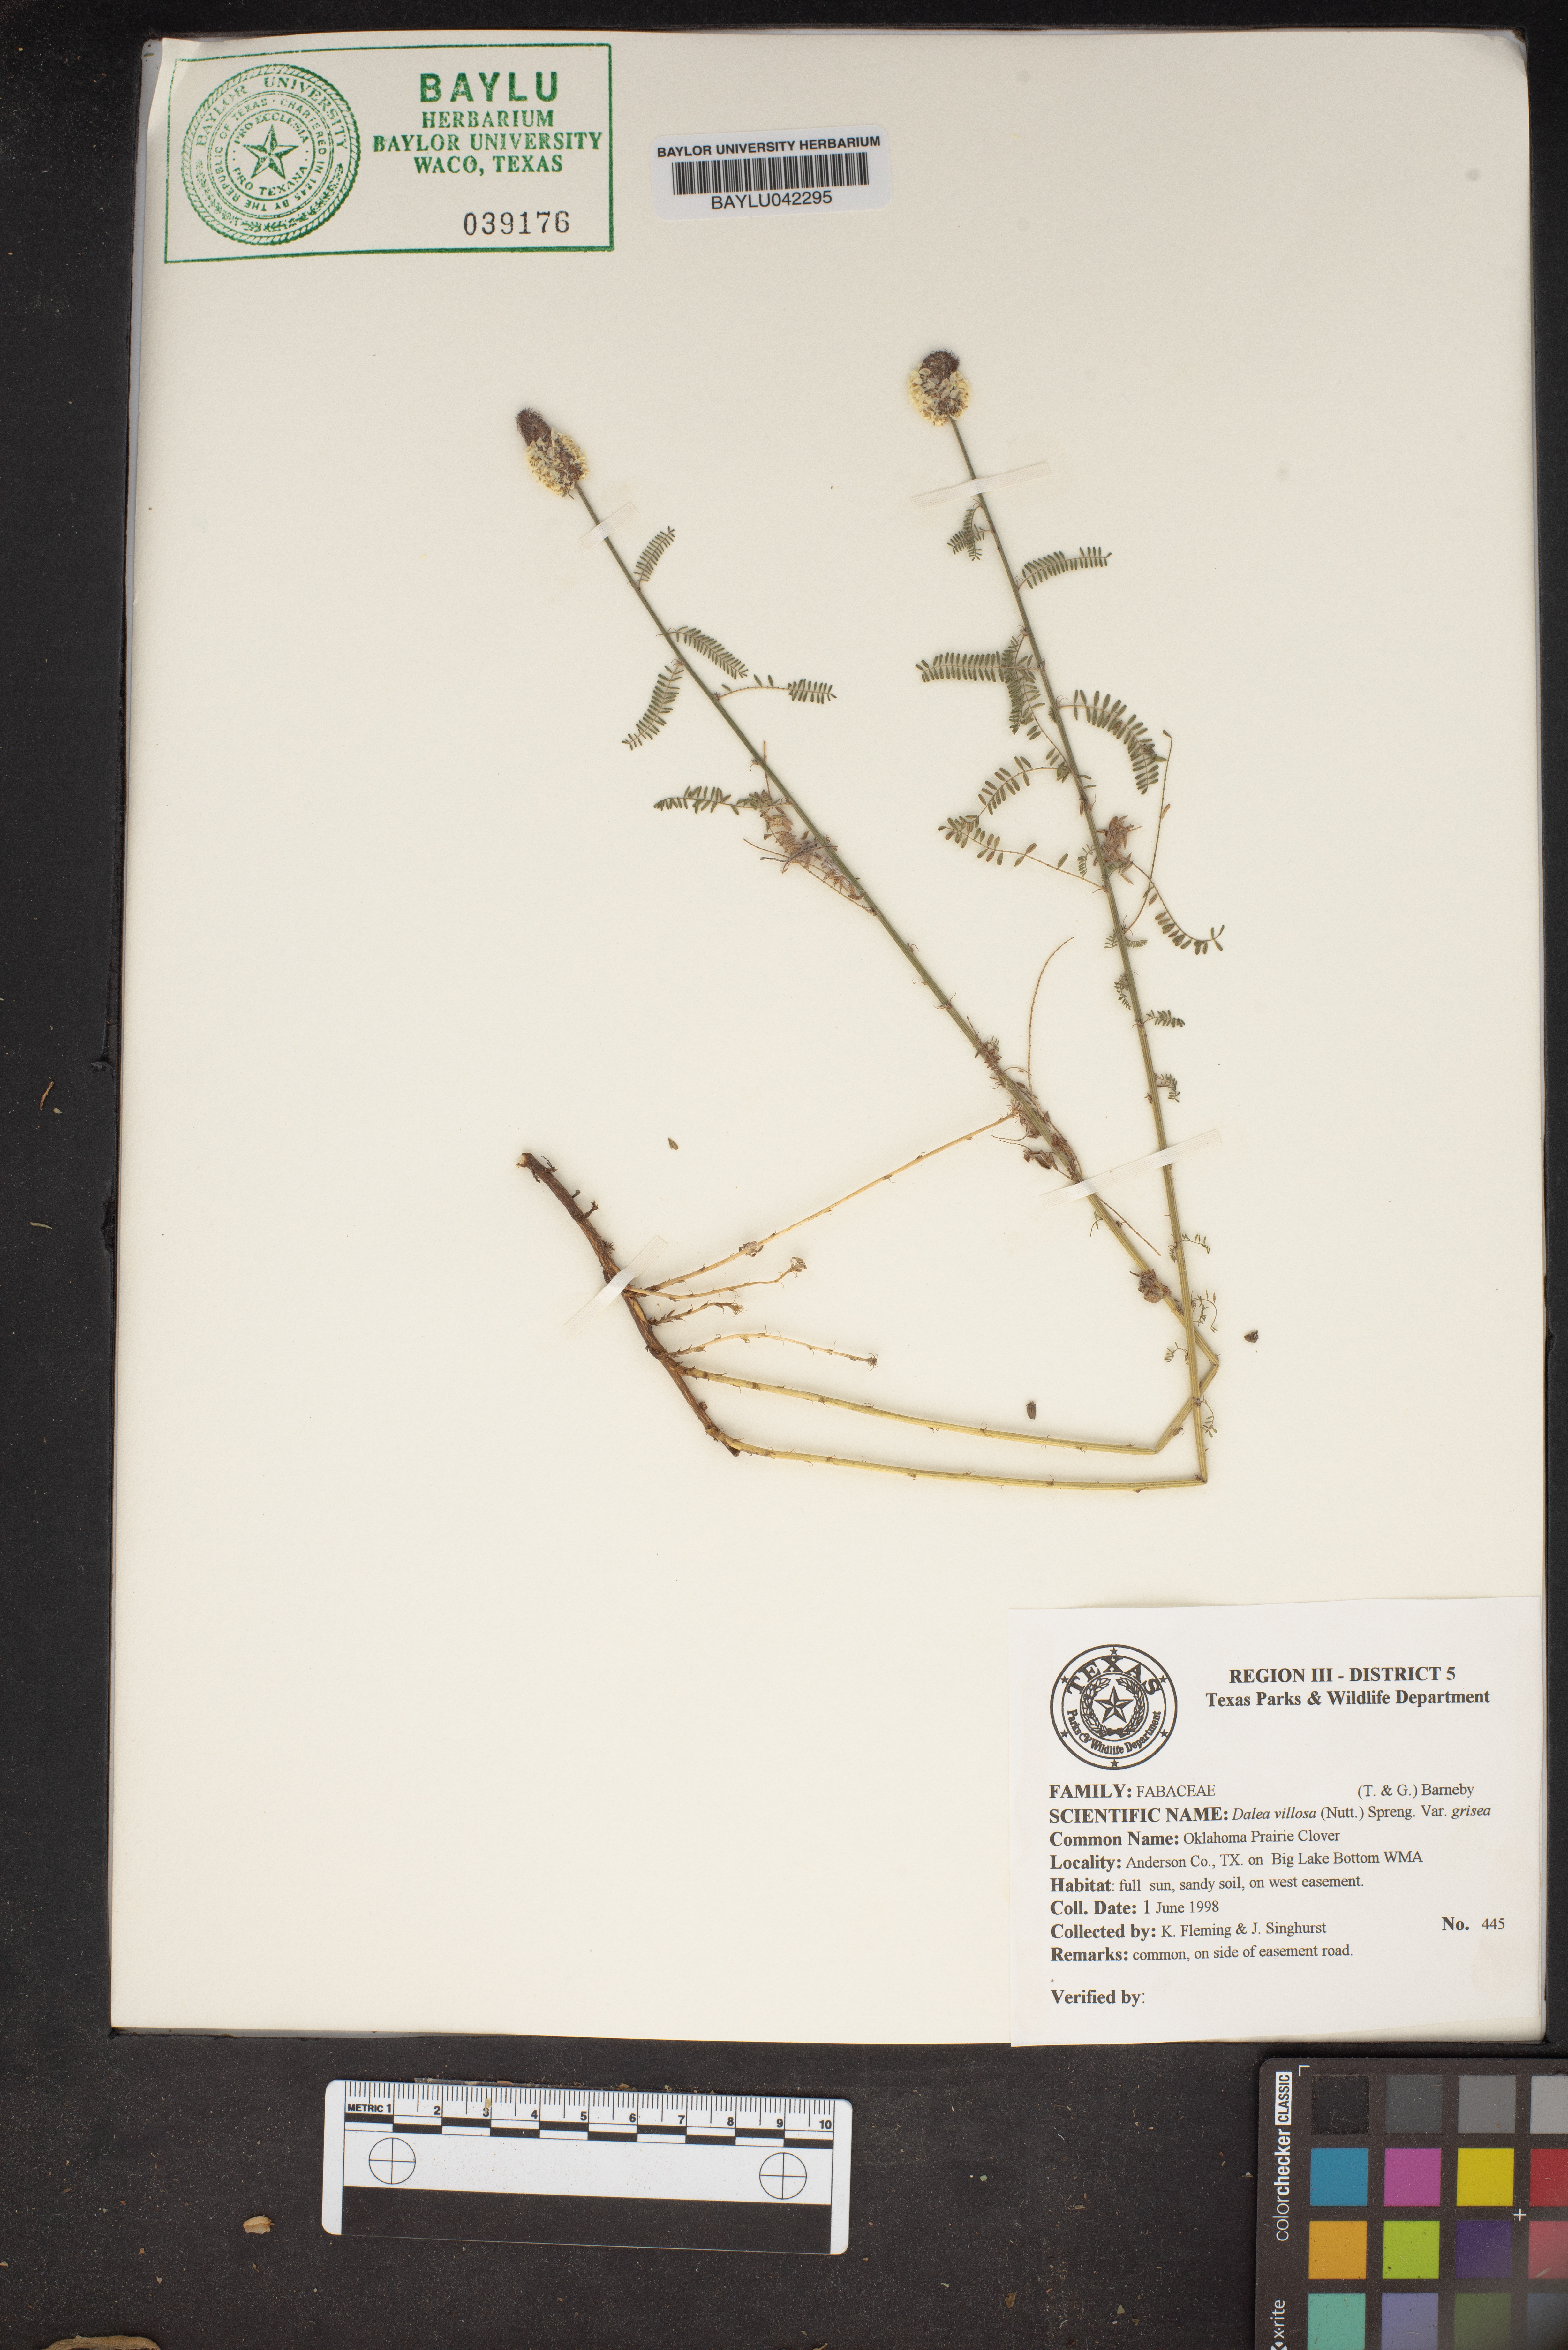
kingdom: Plantae
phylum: Tracheophyta
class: Magnoliopsida
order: Fabales
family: Fabaceae
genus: Dalea
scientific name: Dalea villosa
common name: Silky prairie-clover
